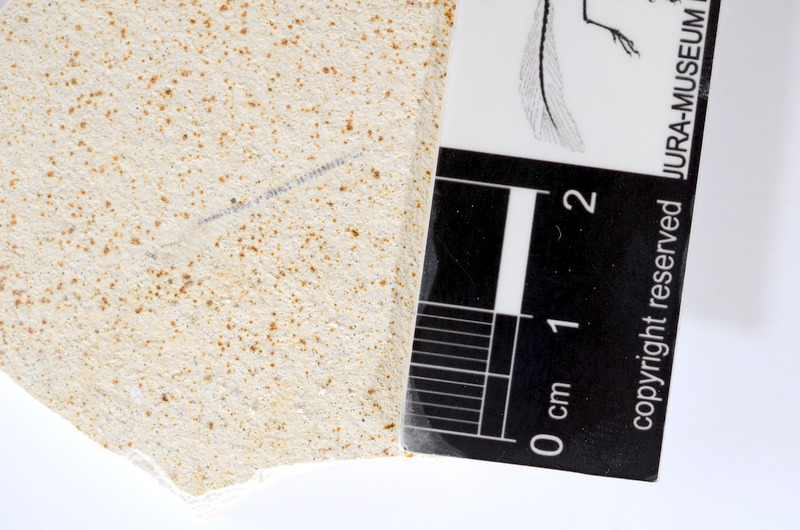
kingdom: Animalia
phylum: Chordata
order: Salmoniformes
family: Orthogonikleithridae
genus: Orthogonikleithrus
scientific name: Orthogonikleithrus hoelli
